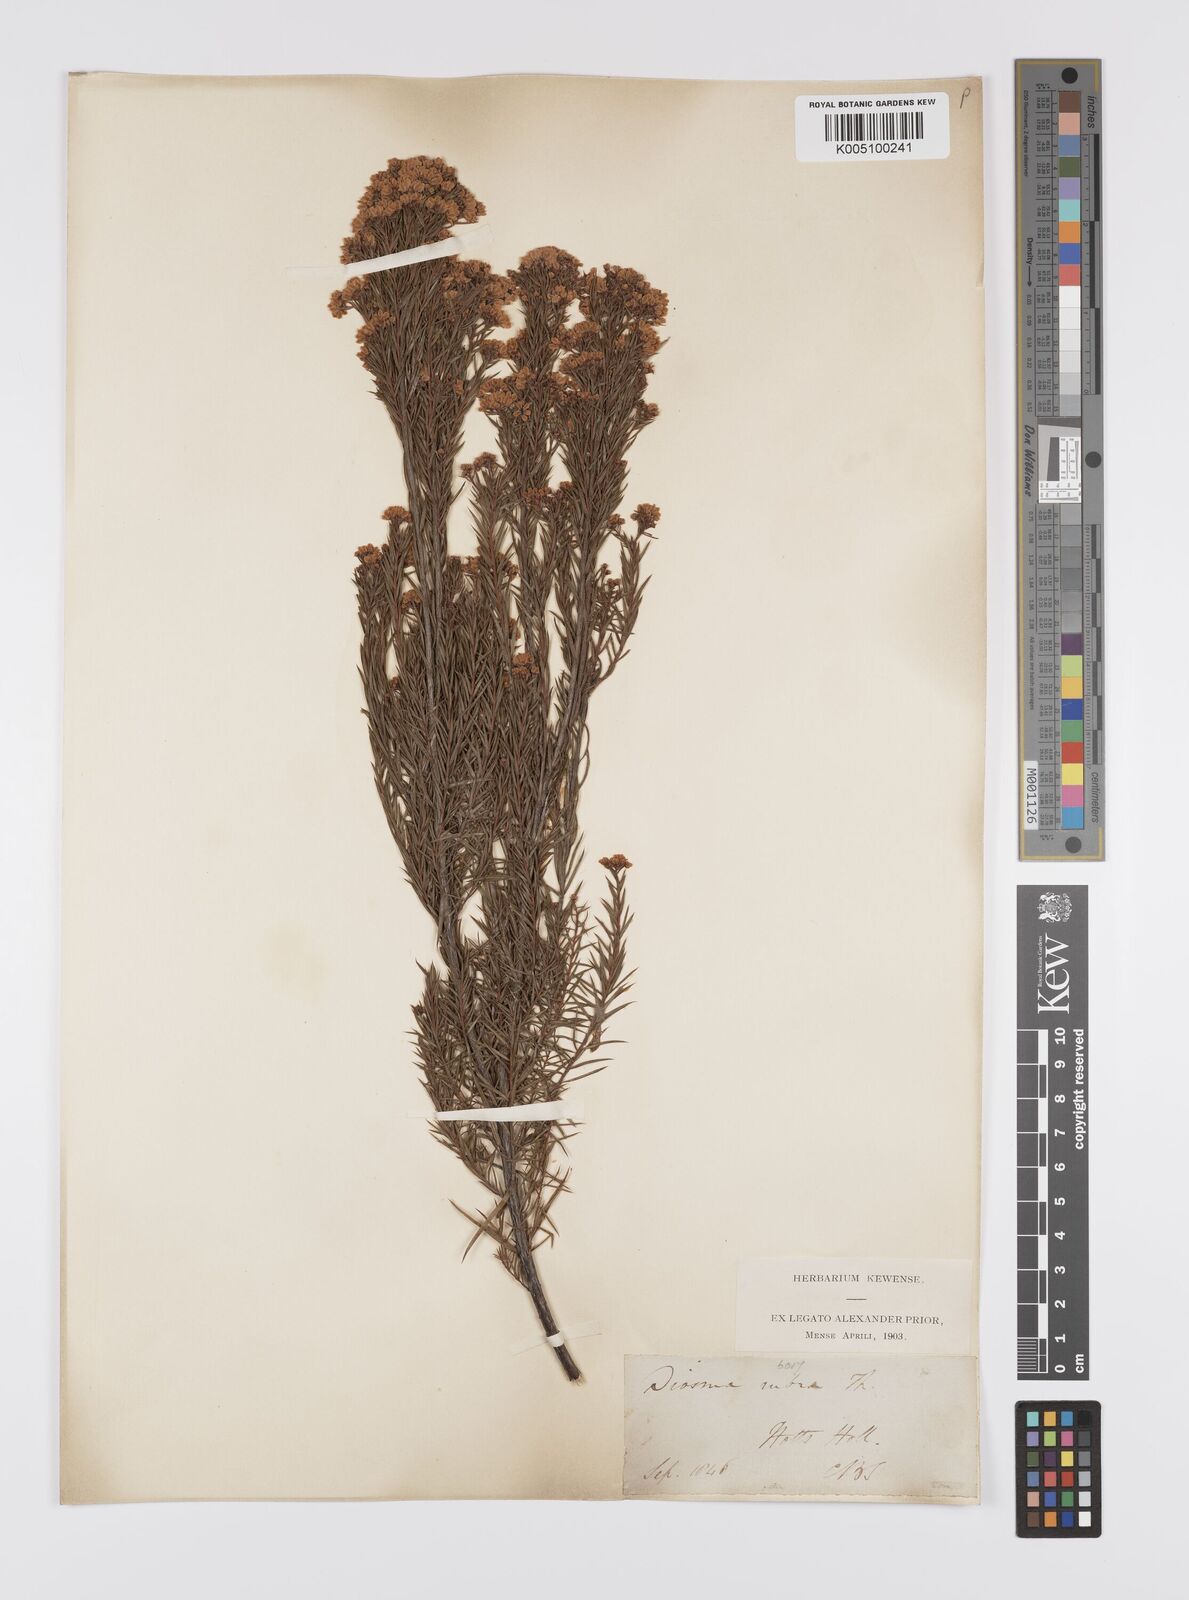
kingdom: Plantae
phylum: Tracheophyta
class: Magnoliopsida
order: Sapindales
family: Rutaceae
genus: Diosma
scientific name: Diosma hirsuta
